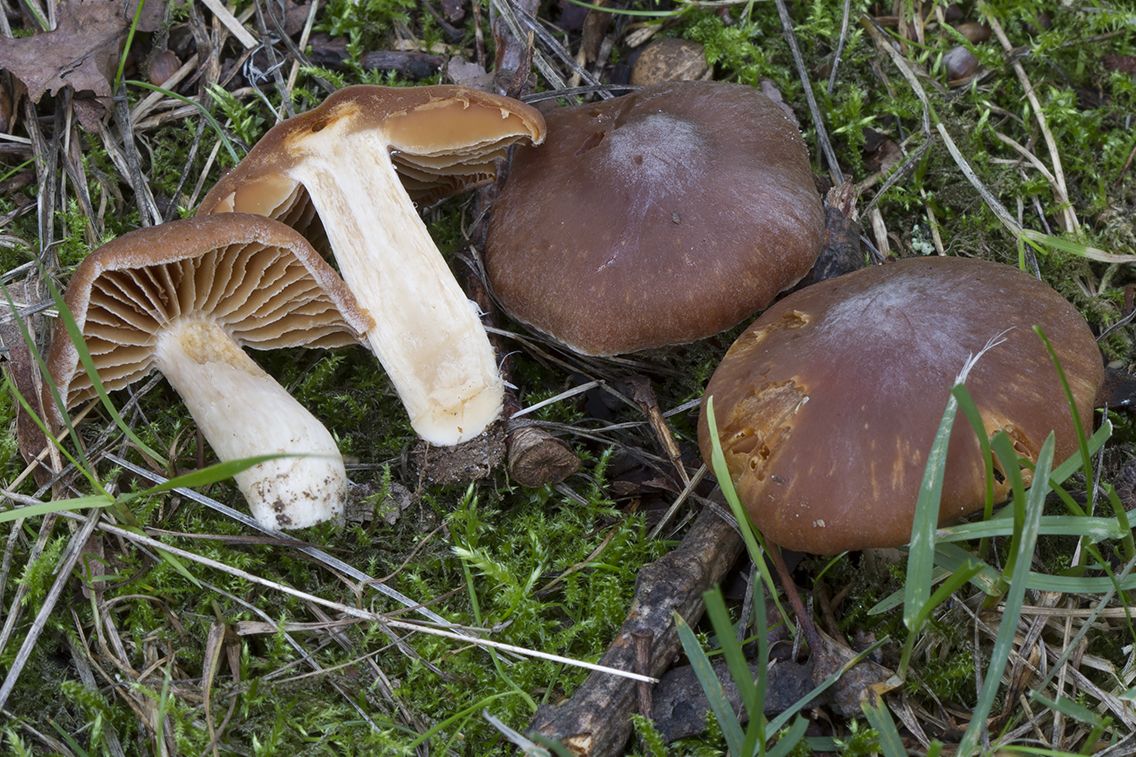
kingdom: Fungi
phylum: Basidiomycota
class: Agaricomycetes
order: Agaricales
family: Cortinariaceae
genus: Cortinarius
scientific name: Cortinarius
